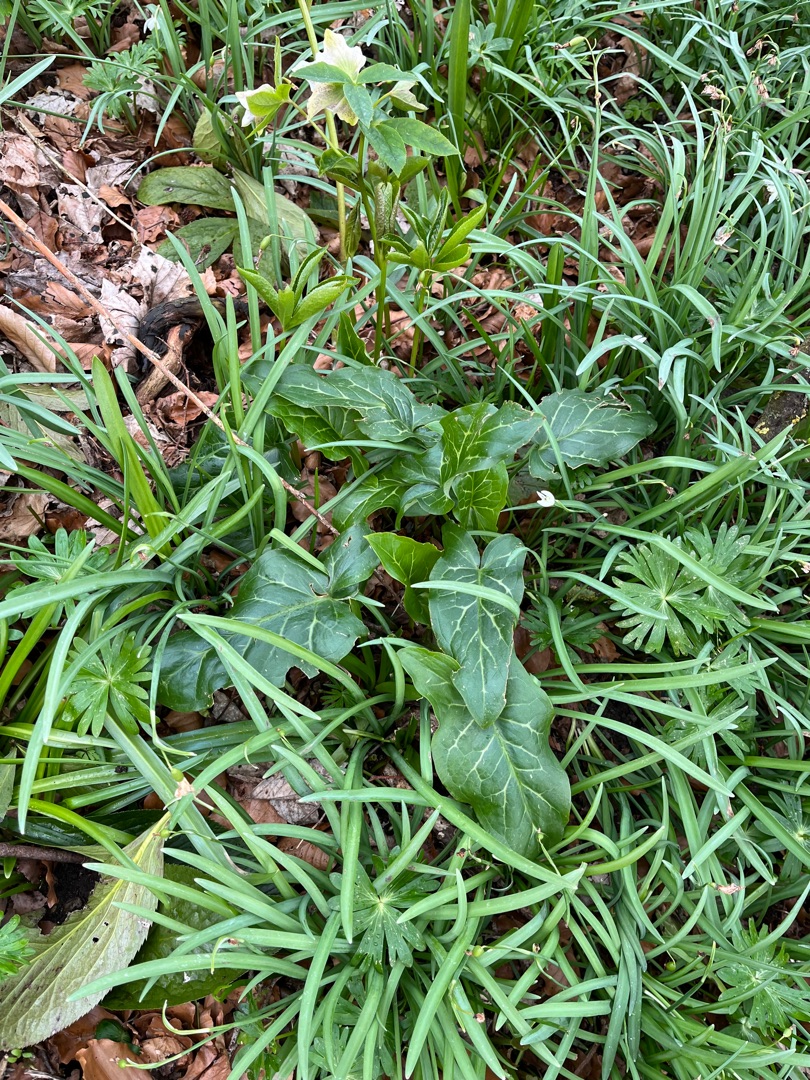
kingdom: Plantae
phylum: Tracheophyta
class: Liliopsida
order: Alismatales
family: Araceae
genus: Arum
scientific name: Arum italicum
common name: Italiensk arum
